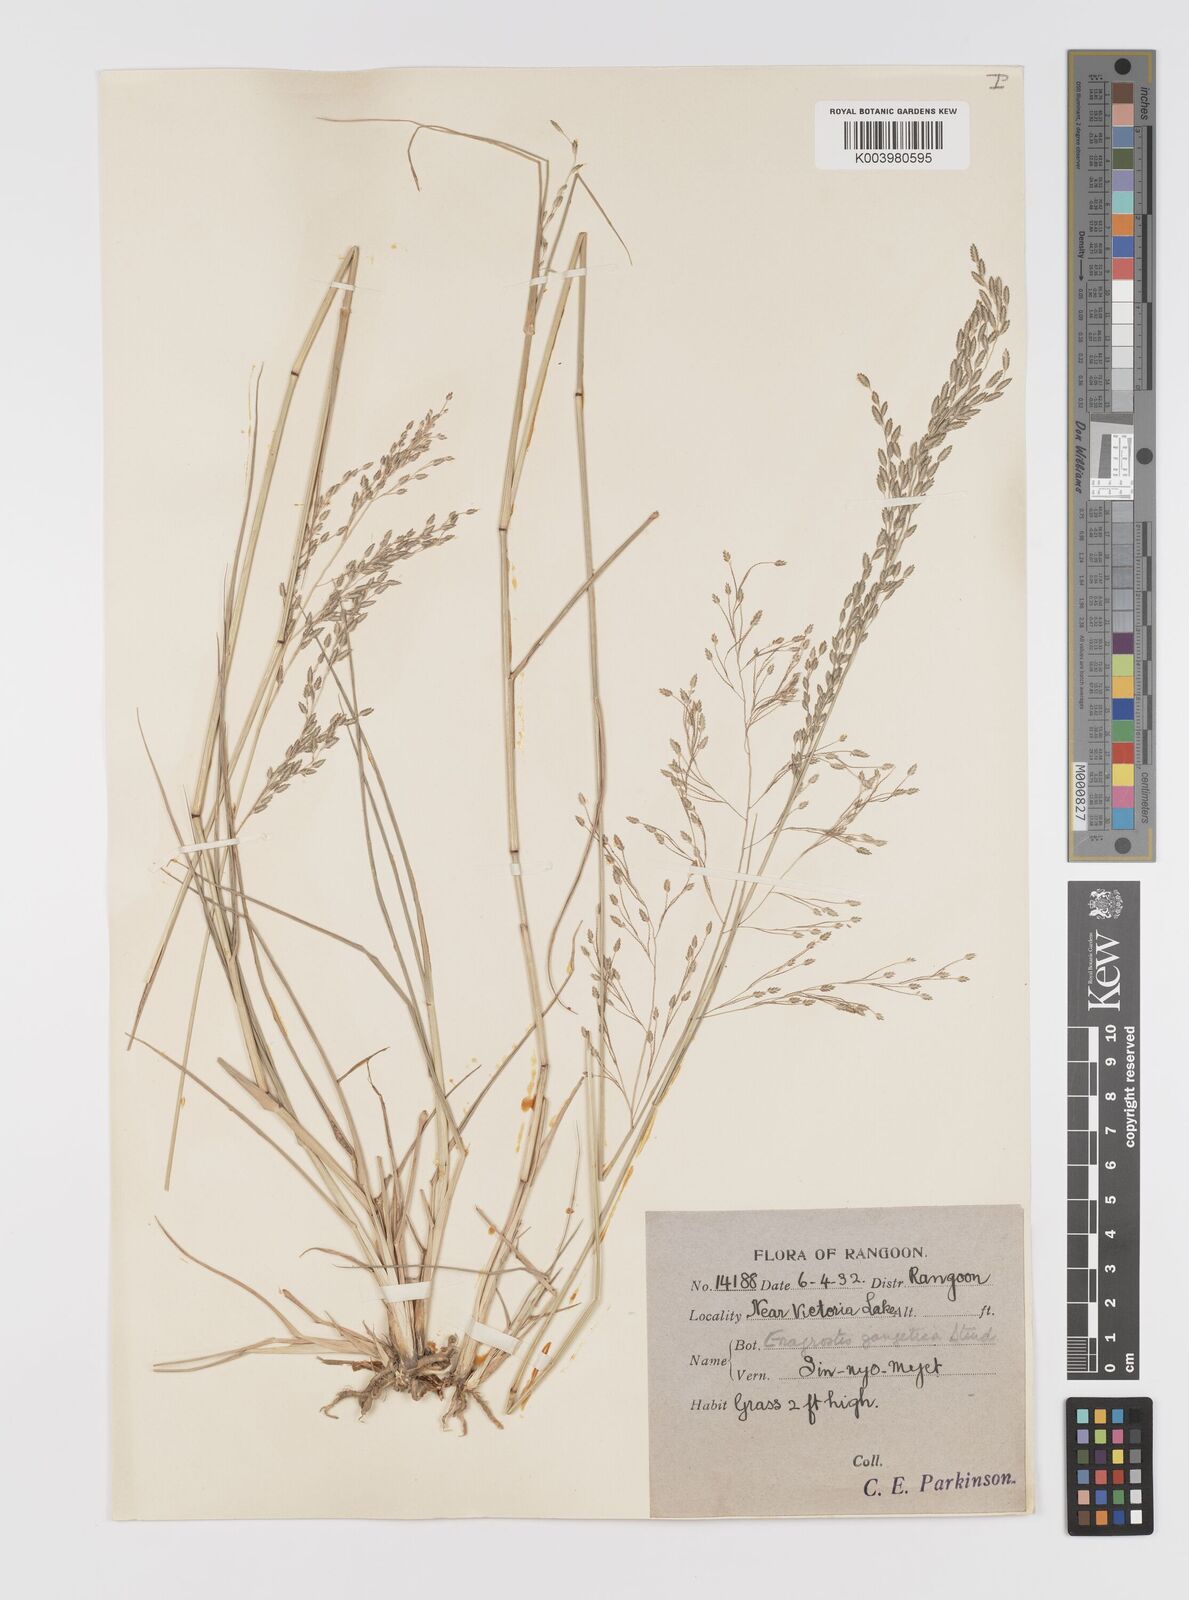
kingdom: Plantae
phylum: Tracheophyta
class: Liliopsida
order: Poales
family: Poaceae
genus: Eragrostis
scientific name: Eragrostis atrovirens
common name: Thalia lovegrass
